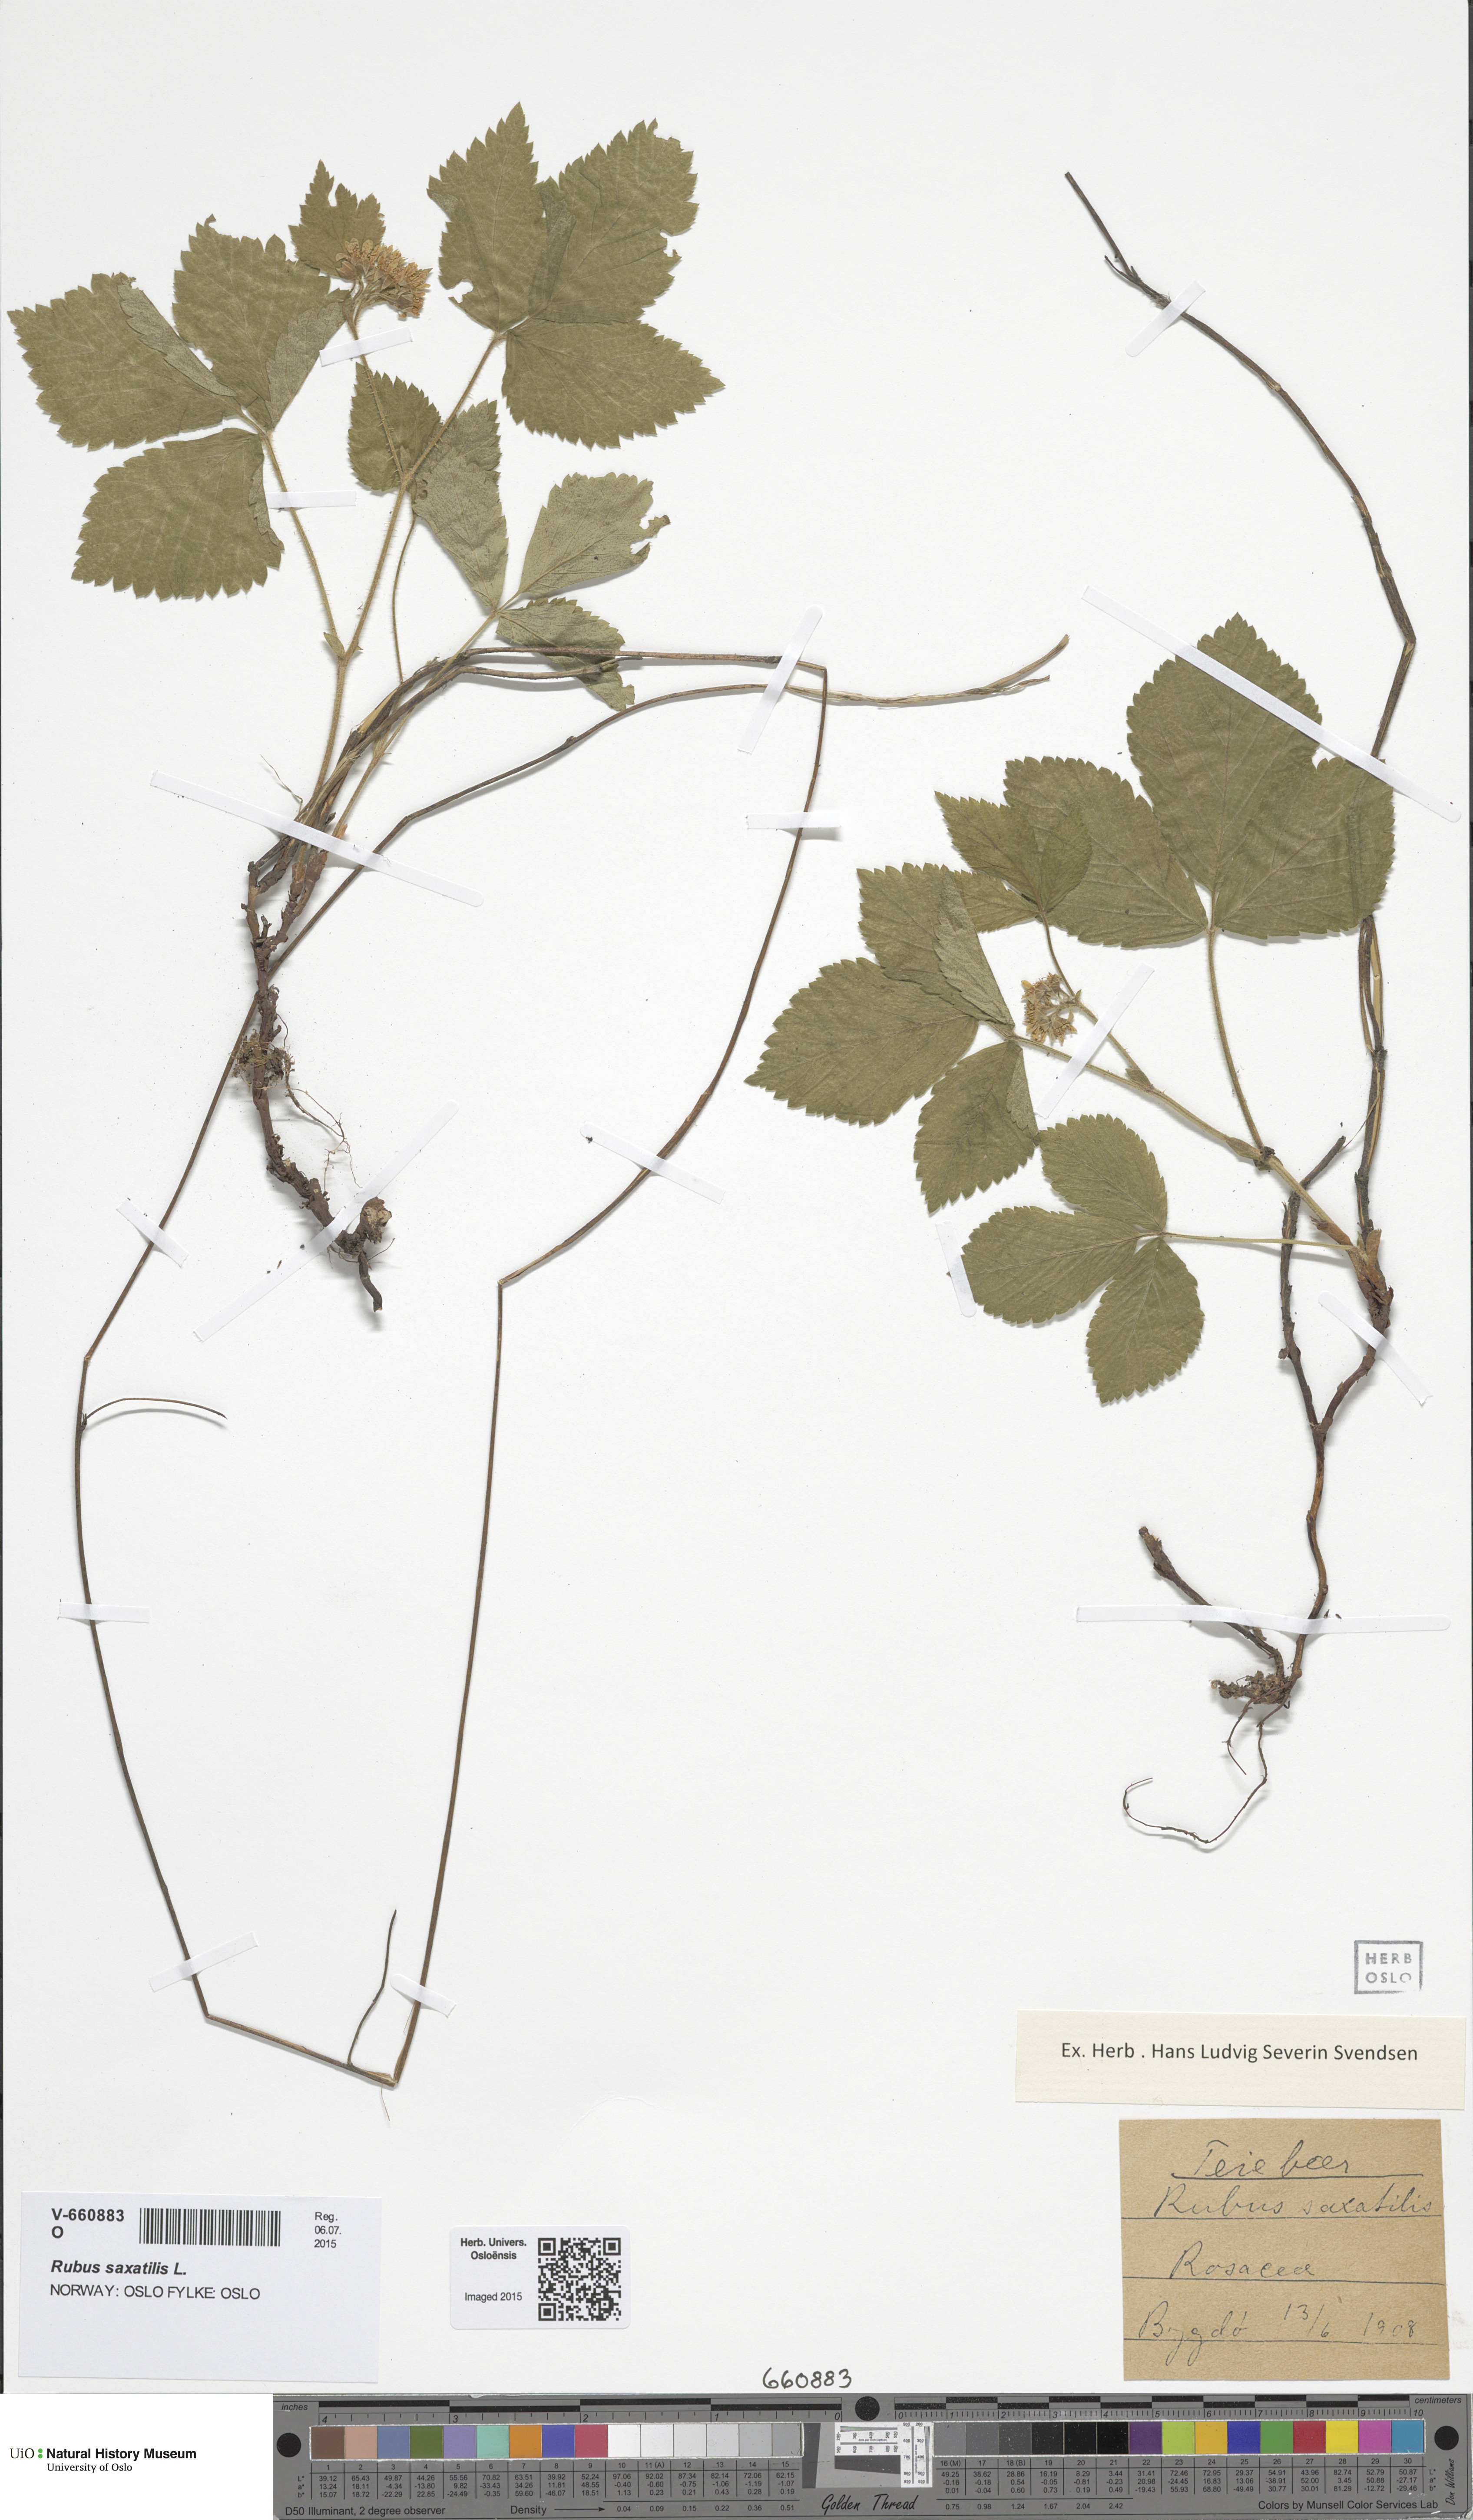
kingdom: Plantae
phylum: Tracheophyta
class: Magnoliopsida
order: Rosales
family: Rosaceae
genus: Rubus
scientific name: Rubus saxatilis
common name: Stone bramble
